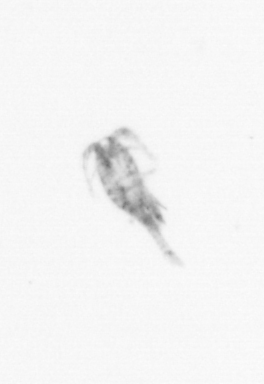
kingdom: Animalia
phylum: Arthropoda
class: Copepoda
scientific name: Copepoda
